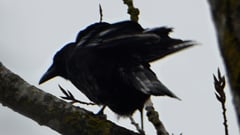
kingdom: Animalia
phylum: Chordata
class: Aves
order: Passeriformes
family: Corvidae
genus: Corvus
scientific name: Corvus corone
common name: Carrion crow
